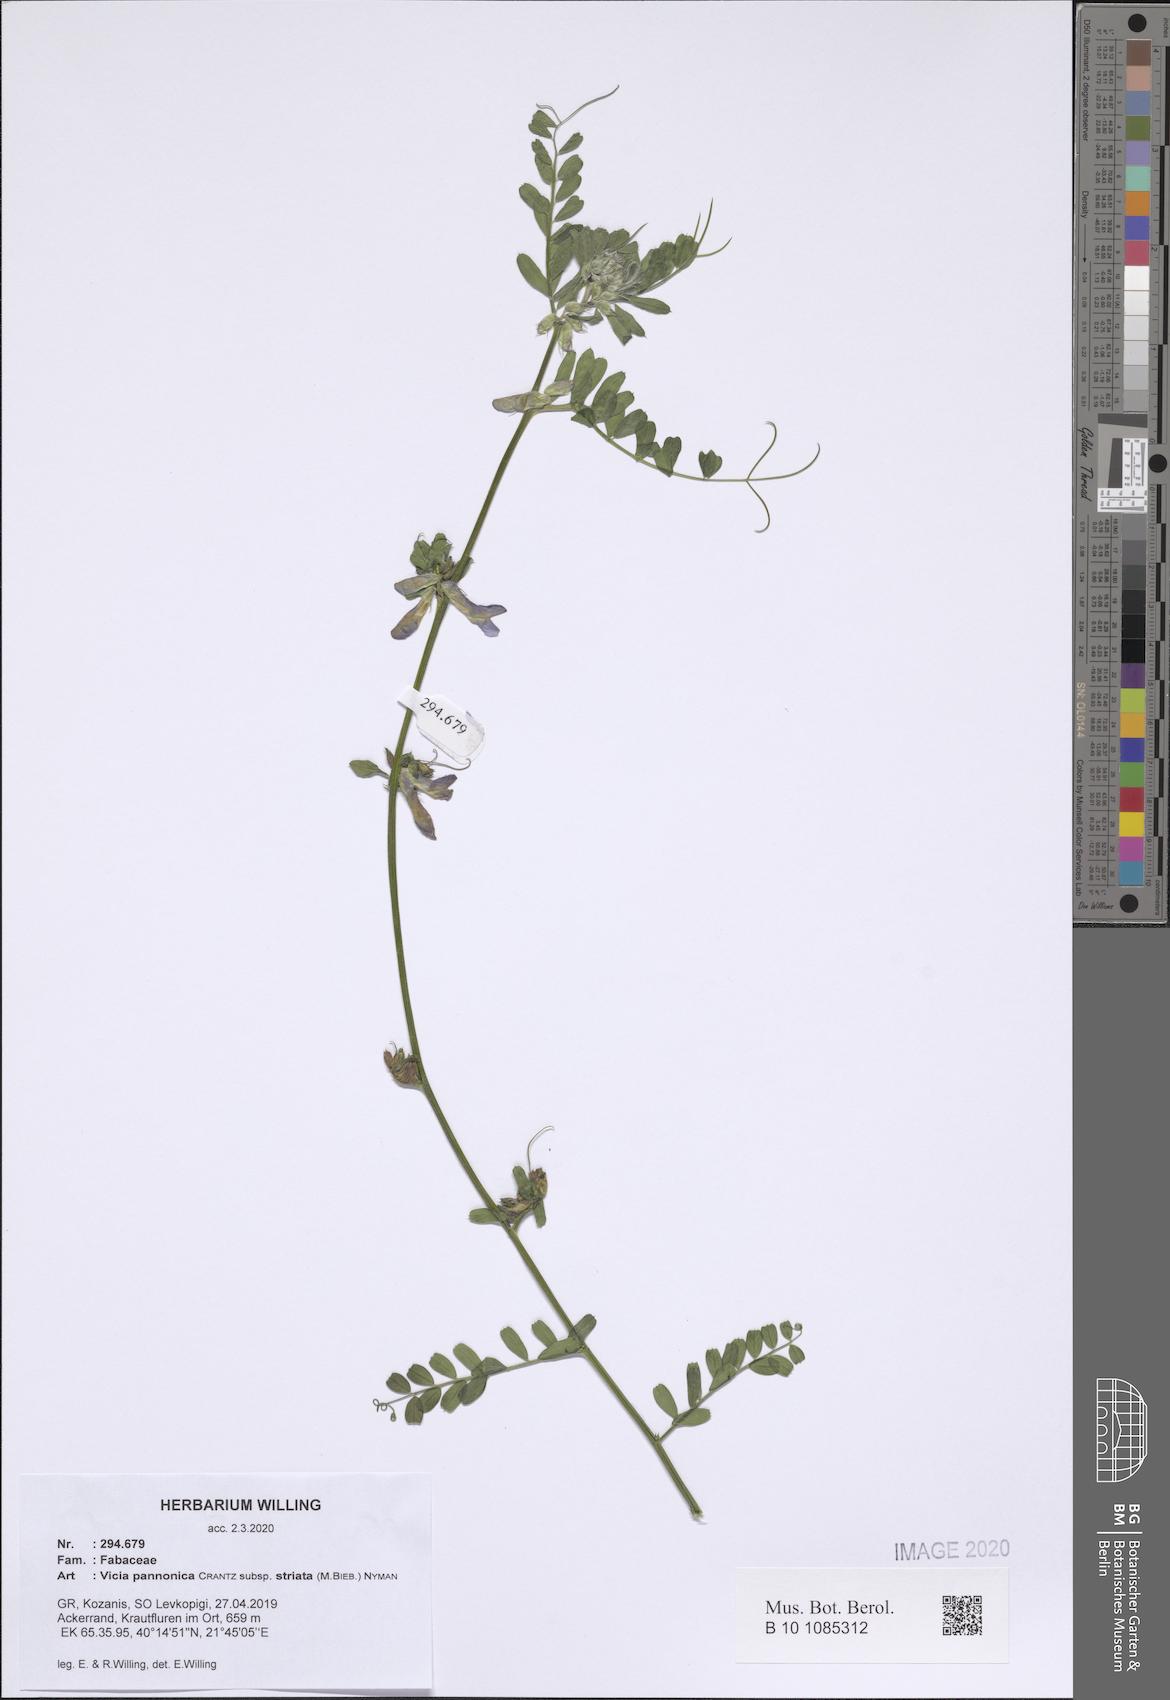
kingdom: Plantae
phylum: Tracheophyta
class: Magnoliopsida
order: Fabales
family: Fabaceae
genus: Vicia
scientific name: Vicia pannonica
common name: Hungarian vetch
